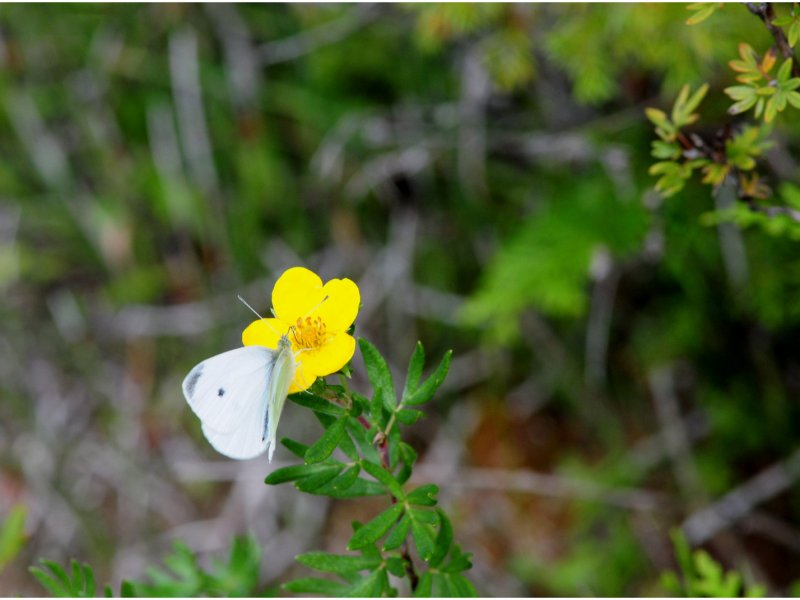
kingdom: Animalia
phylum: Arthropoda
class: Insecta
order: Lepidoptera
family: Pieridae
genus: Pieris
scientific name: Pieris rapae
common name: Cabbage White
